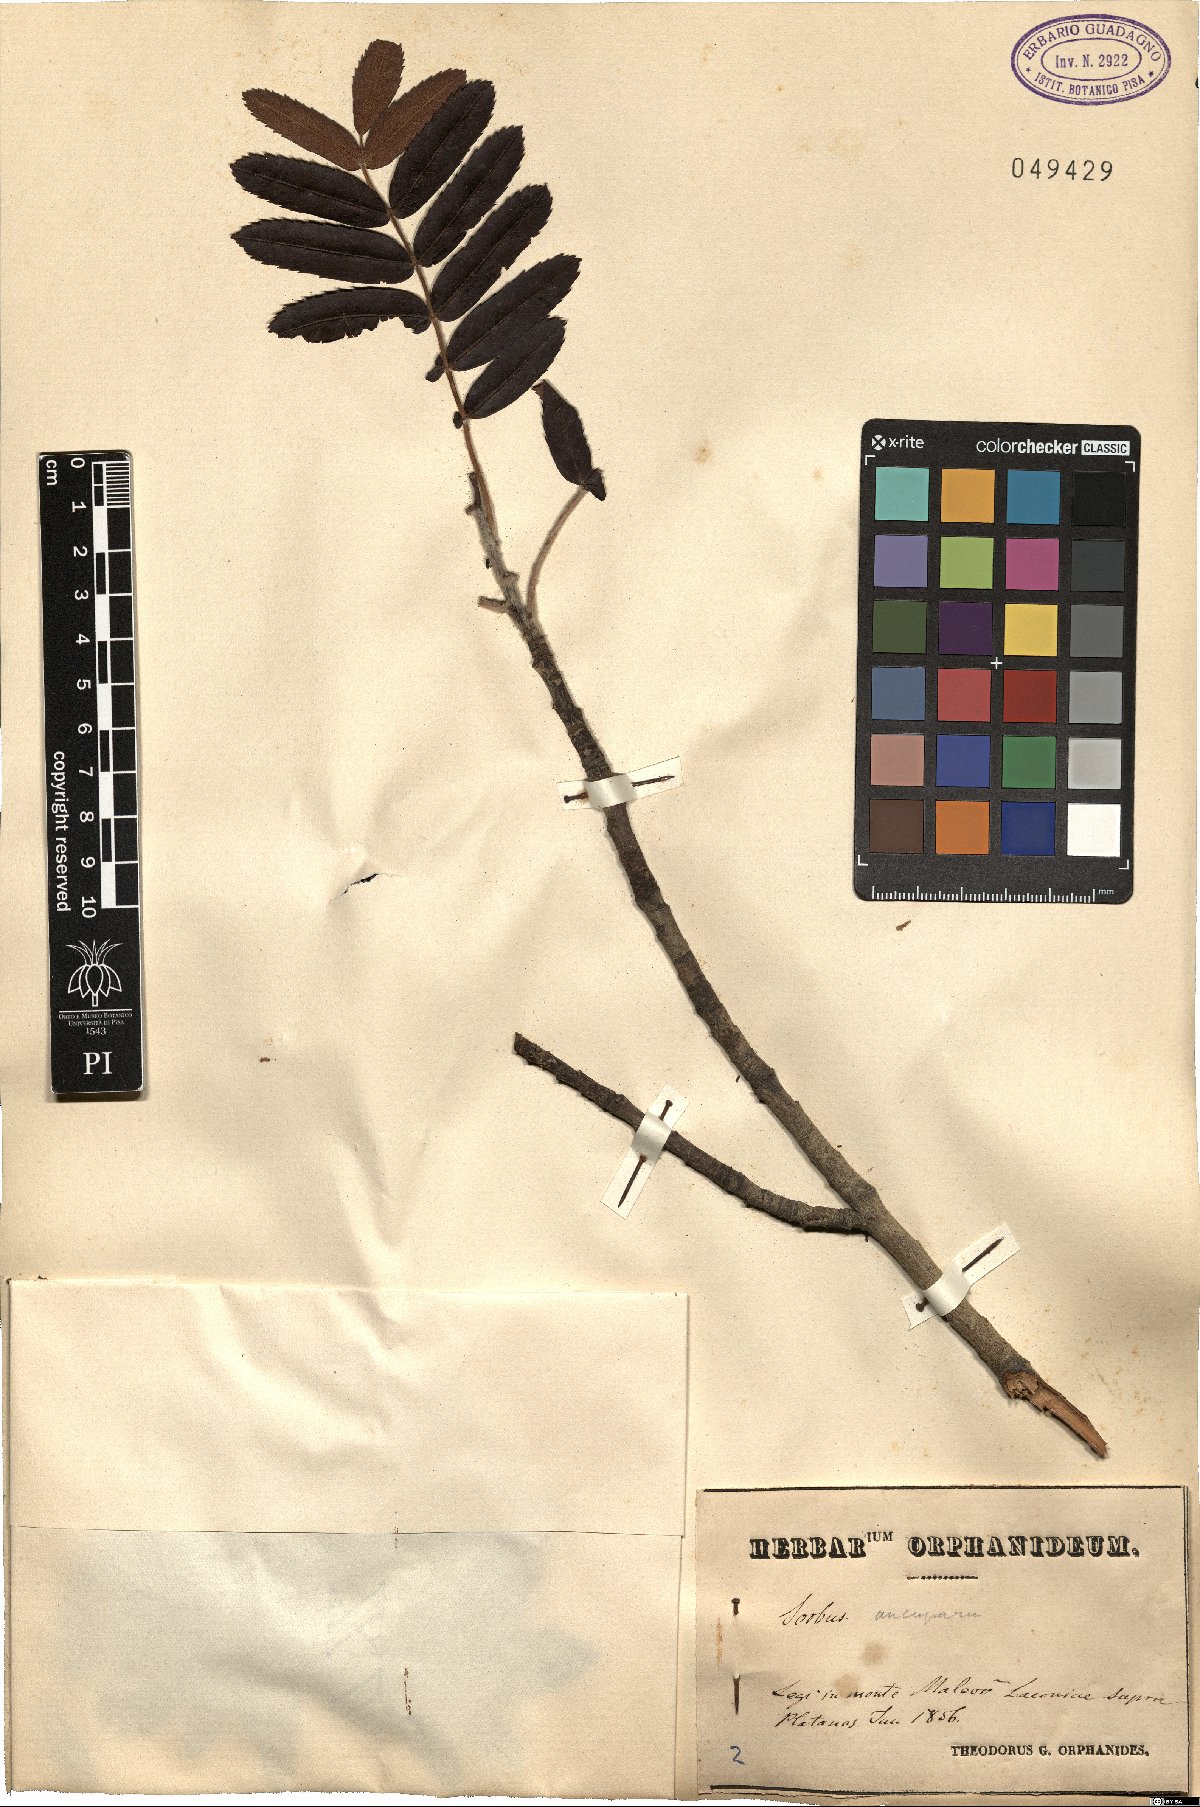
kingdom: Plantae
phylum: Tracheophyta
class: Magnoliopsida
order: Rosales
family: Rosaceae
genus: Sorbus
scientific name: Sorbus aucuparia
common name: Rowan
